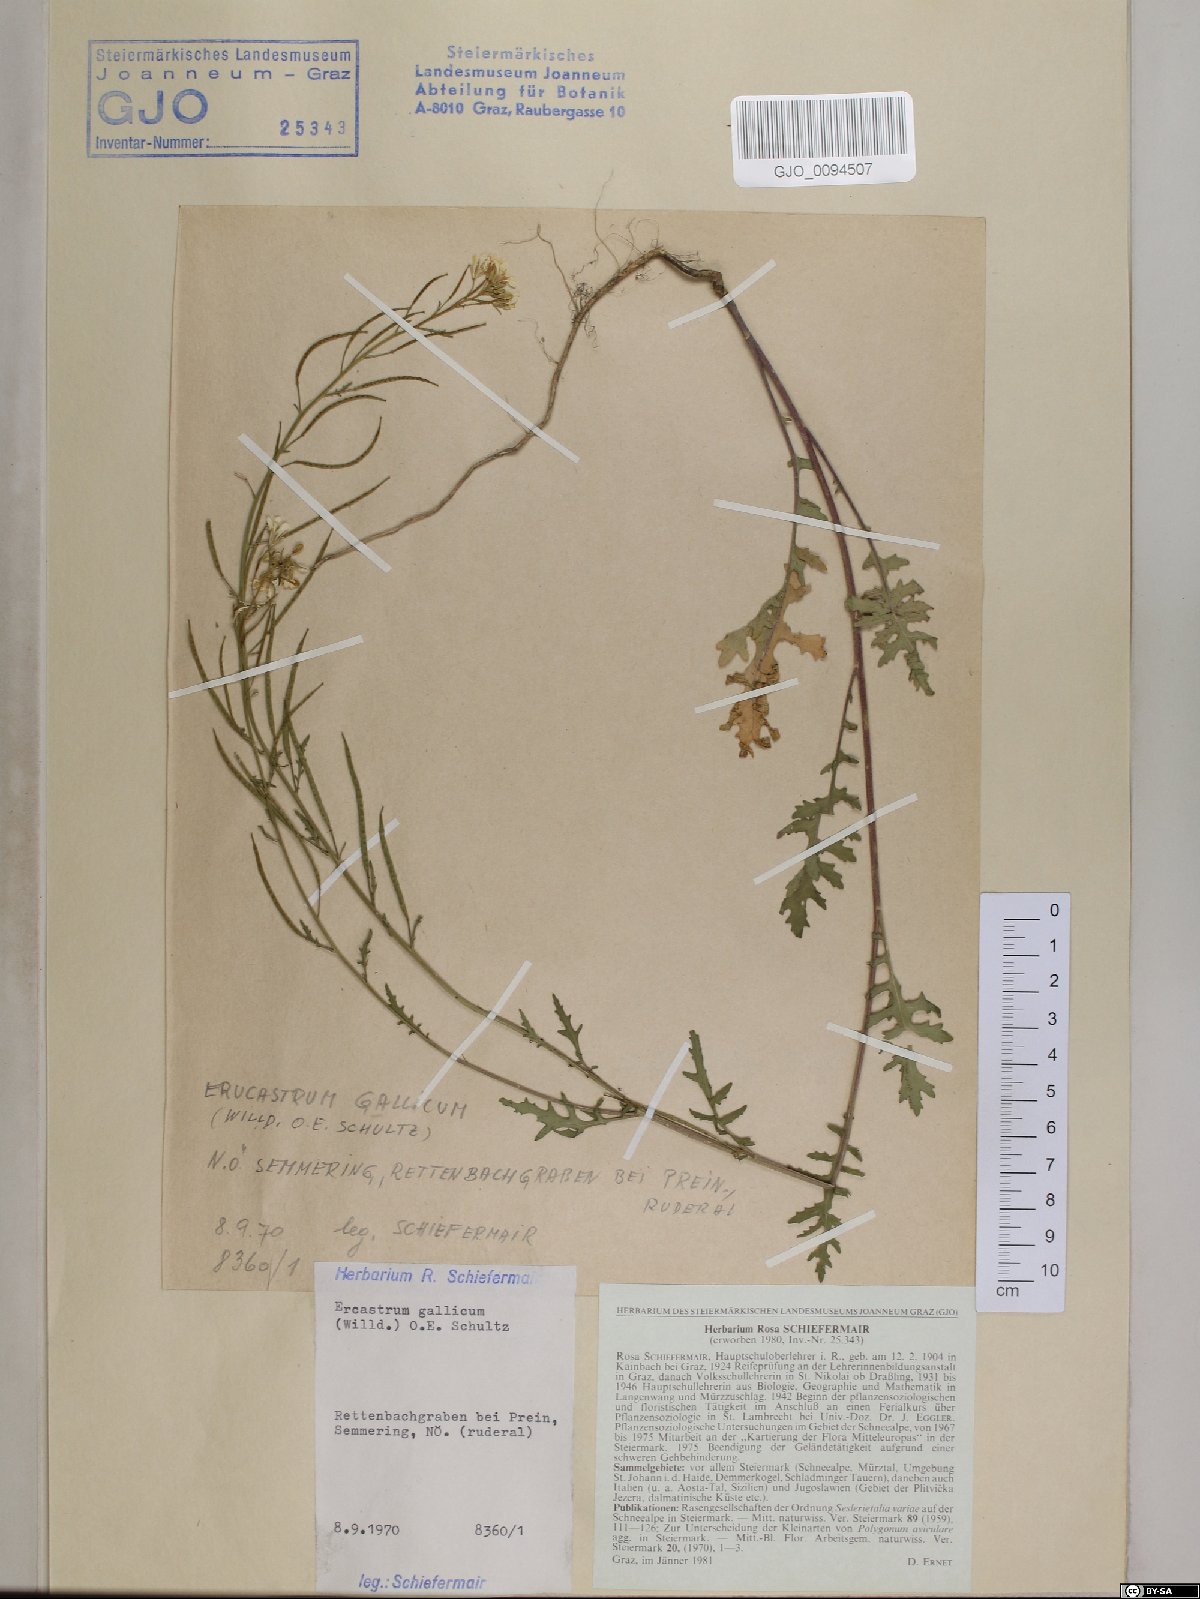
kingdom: Plantae
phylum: Tracheophyta
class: Magnoliopsida
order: Brassicales
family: Brassicaceae
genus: Erucastrum
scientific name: Erucastrum gallicum
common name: Hairy rocket
